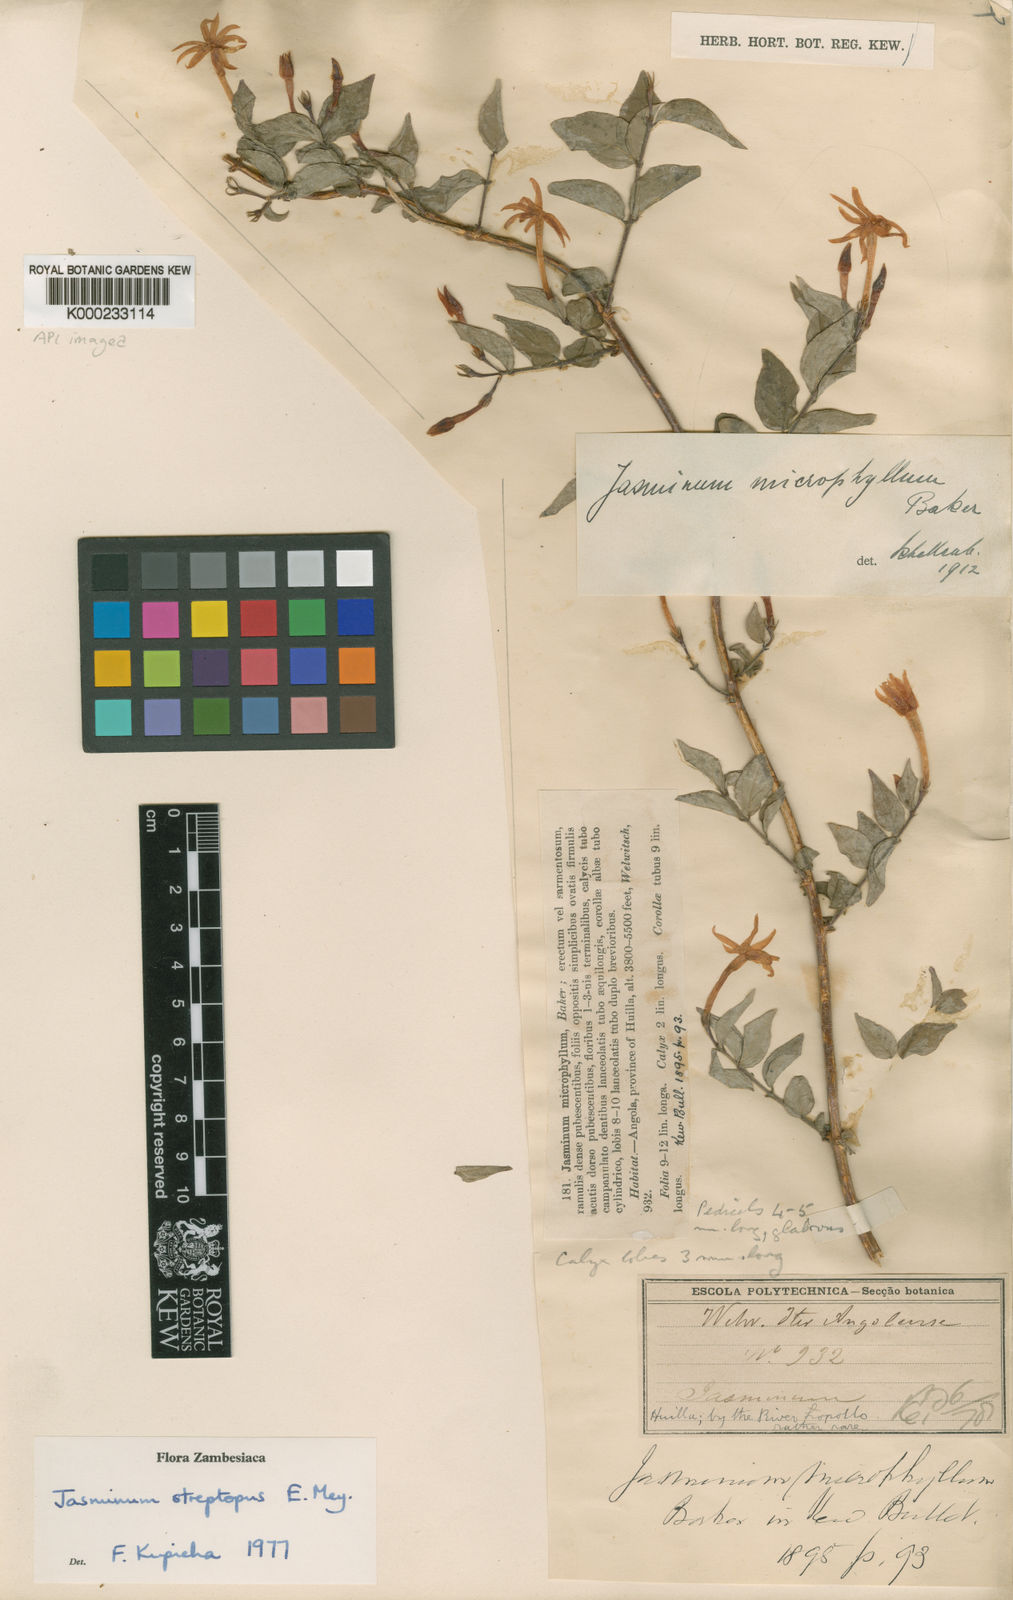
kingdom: Plantae
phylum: Tracheophyta
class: Magnoliopsida
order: Lamiales
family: Oleaceae
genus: Jasminum
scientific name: Jasminum
